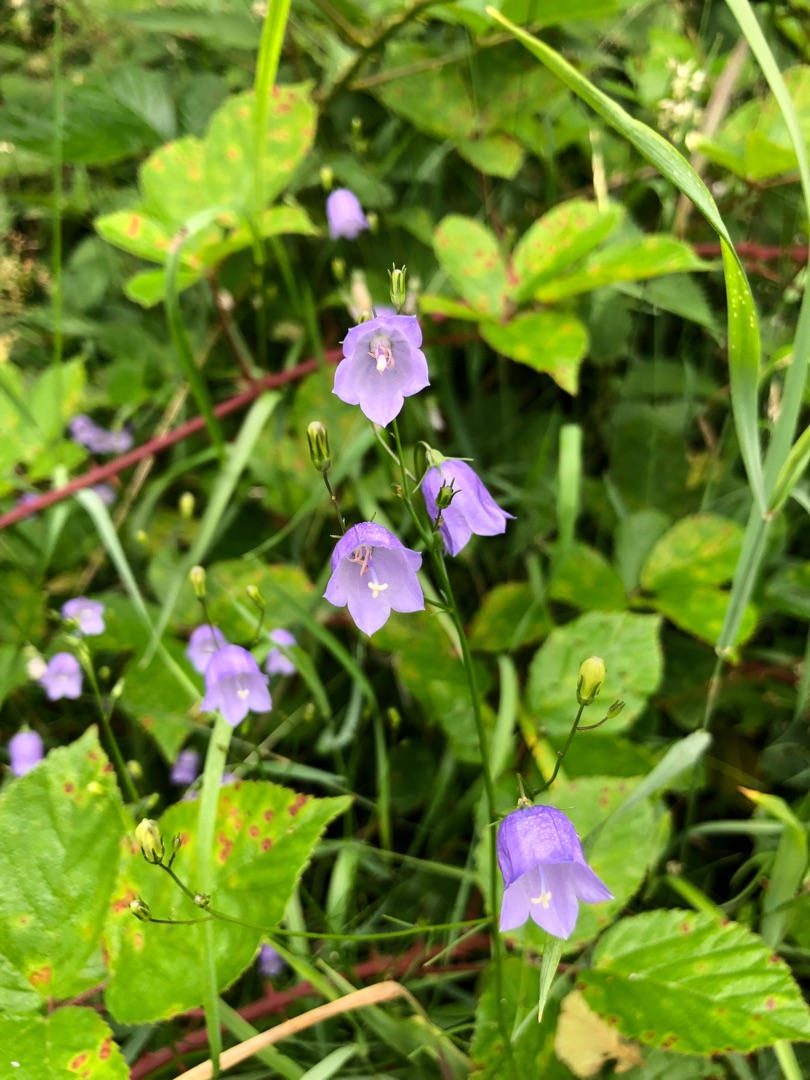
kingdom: Plantae
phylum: Tracheophyta
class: Magnoliopsida
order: Asterales
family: Campanulaceae
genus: Campanula
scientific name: Campanula rotundifolia
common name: Liden klokke
